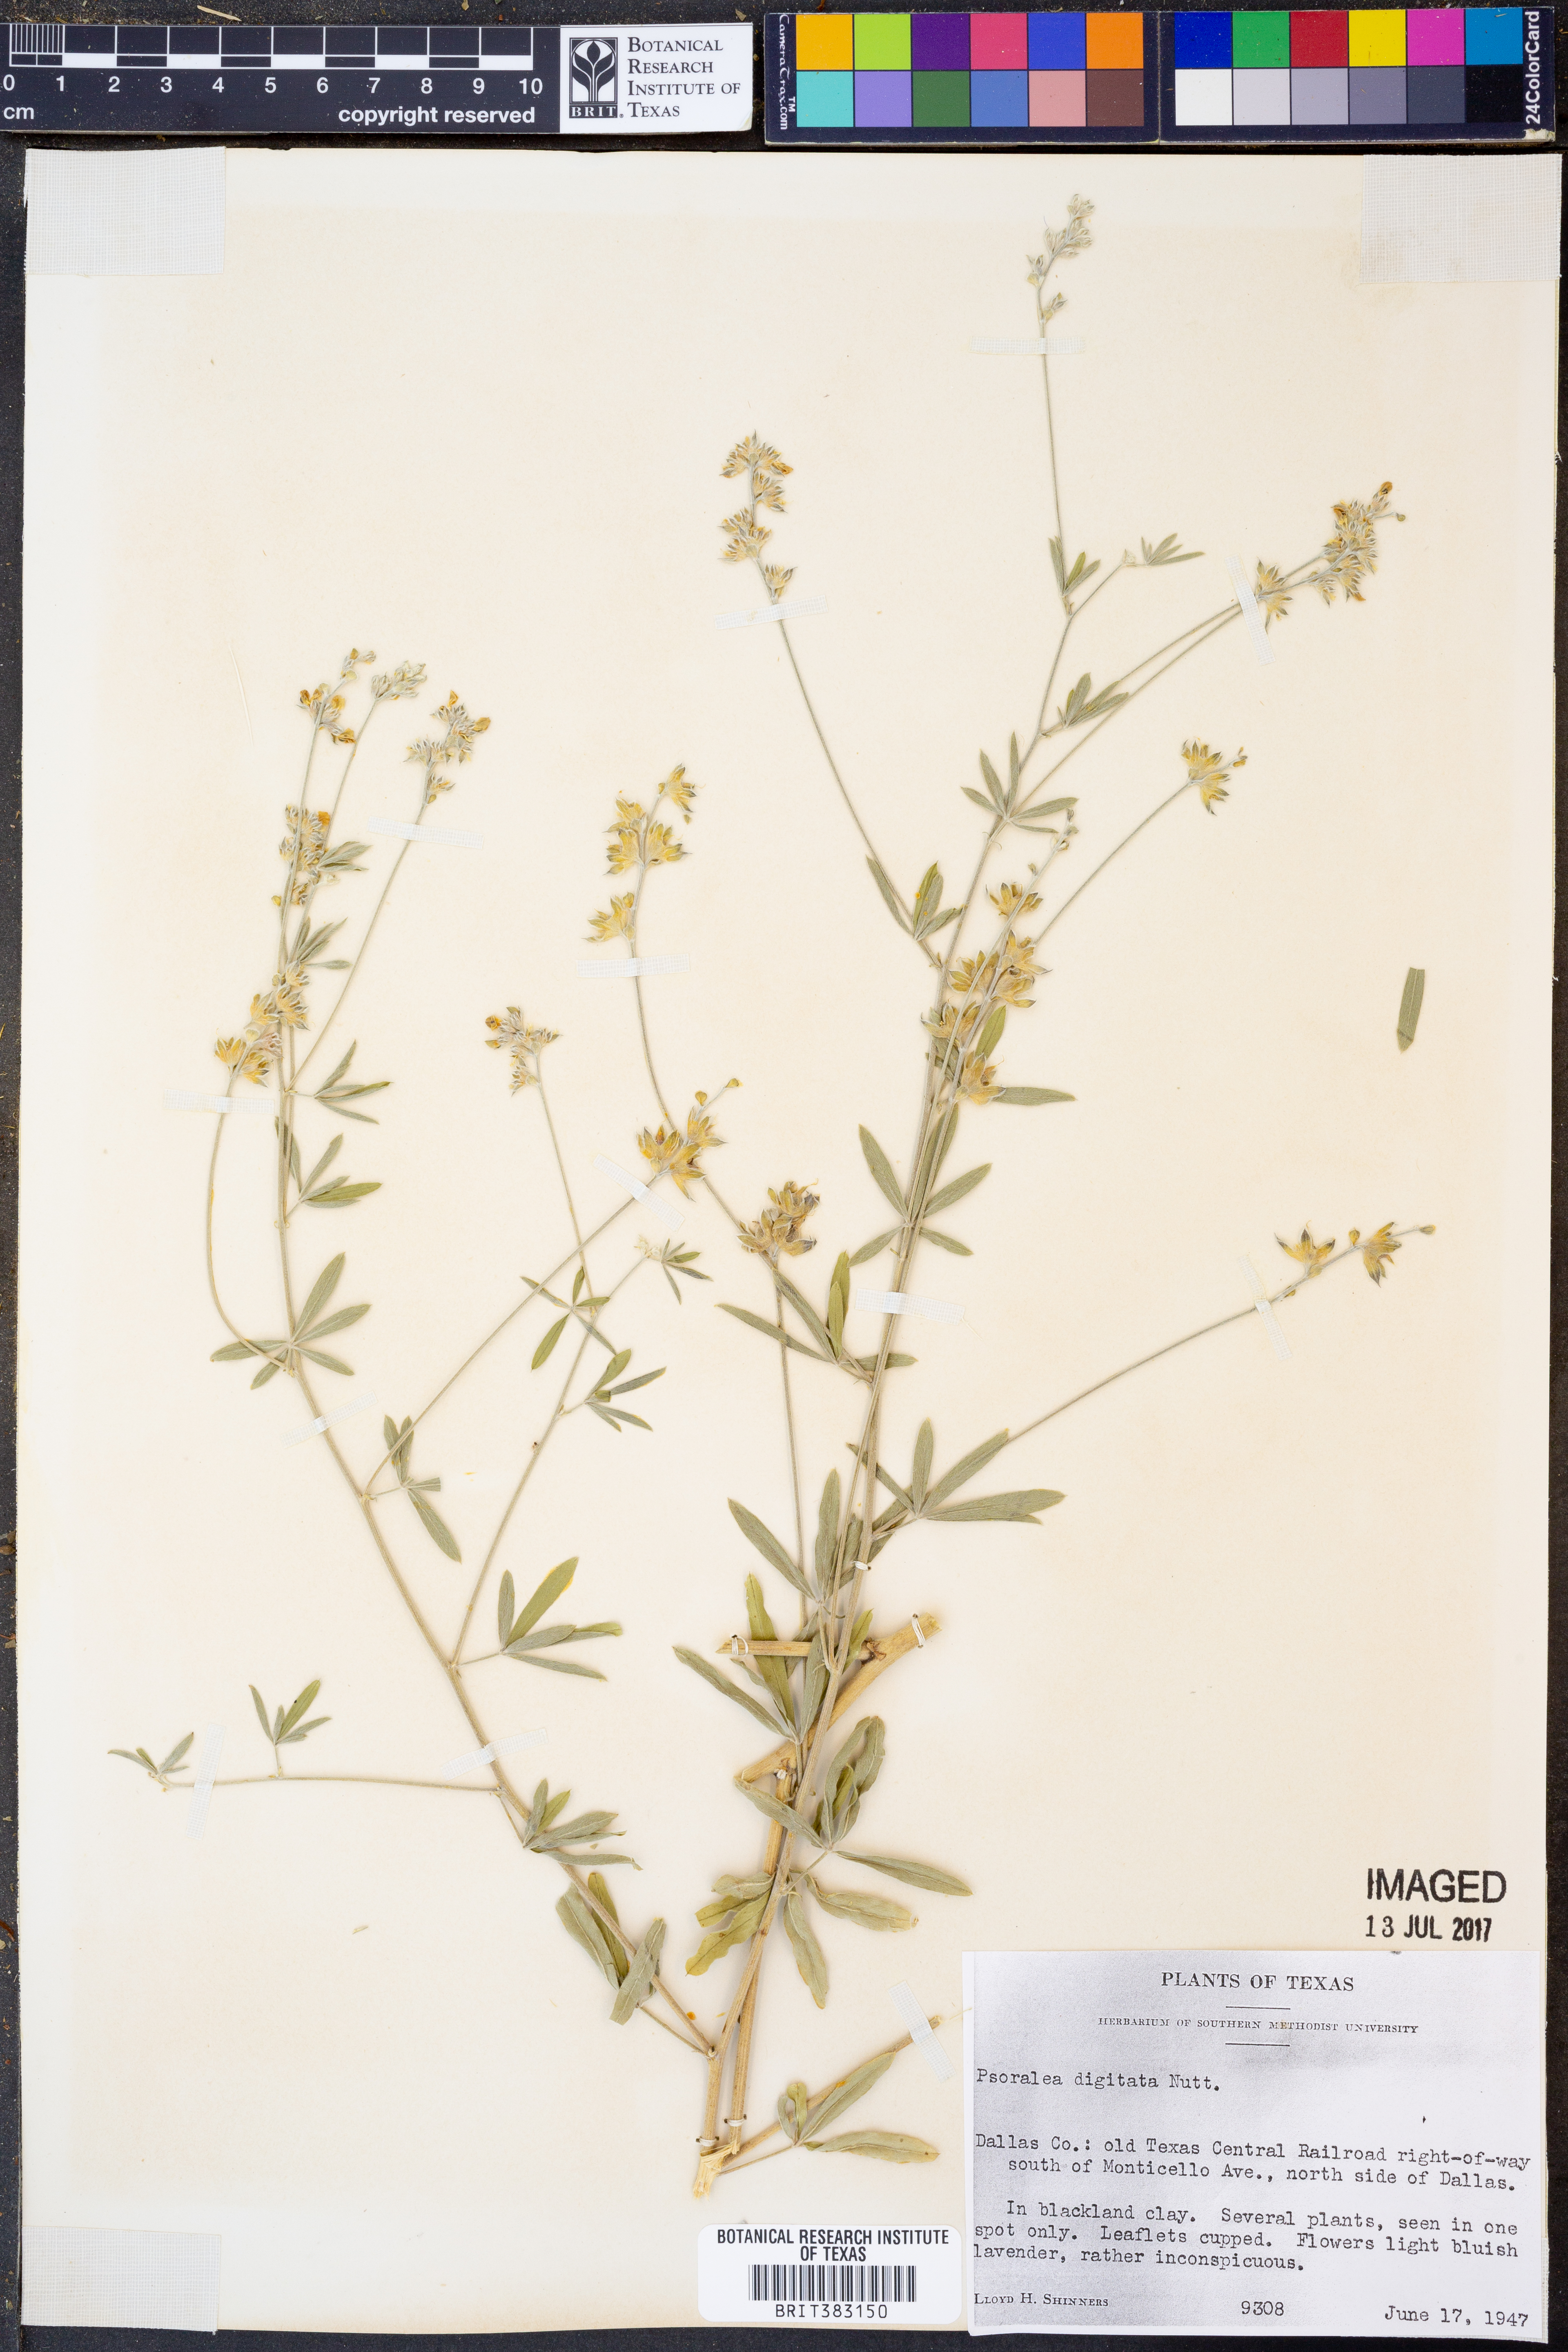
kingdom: Plantae
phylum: Tracheophyta
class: Magnoliopsida
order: Fabales
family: Fabaceae
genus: Pediomelum
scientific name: Pediomelum digitatum
